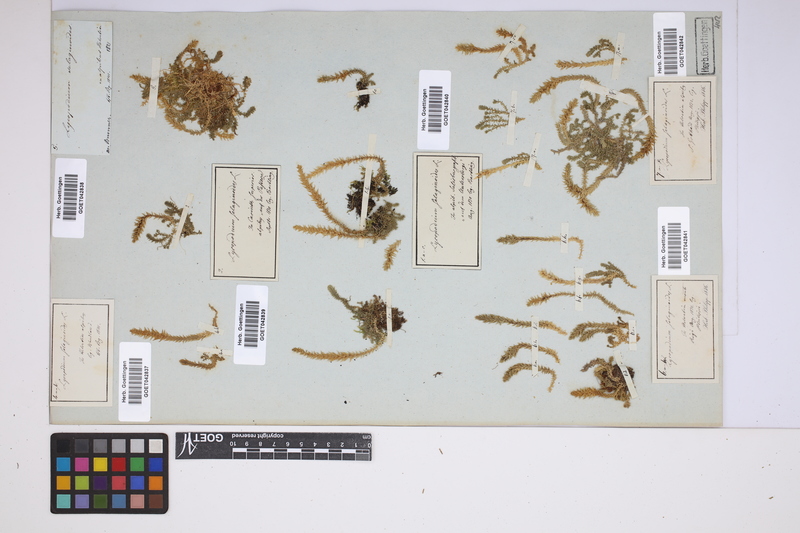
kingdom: Plantae
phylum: Tracheophyta
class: Lycopodiopsida
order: Selaginellales
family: Selaginellaceae
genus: Selaginella
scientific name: Selaginella selaginoides
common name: Prickly mountain-moss
